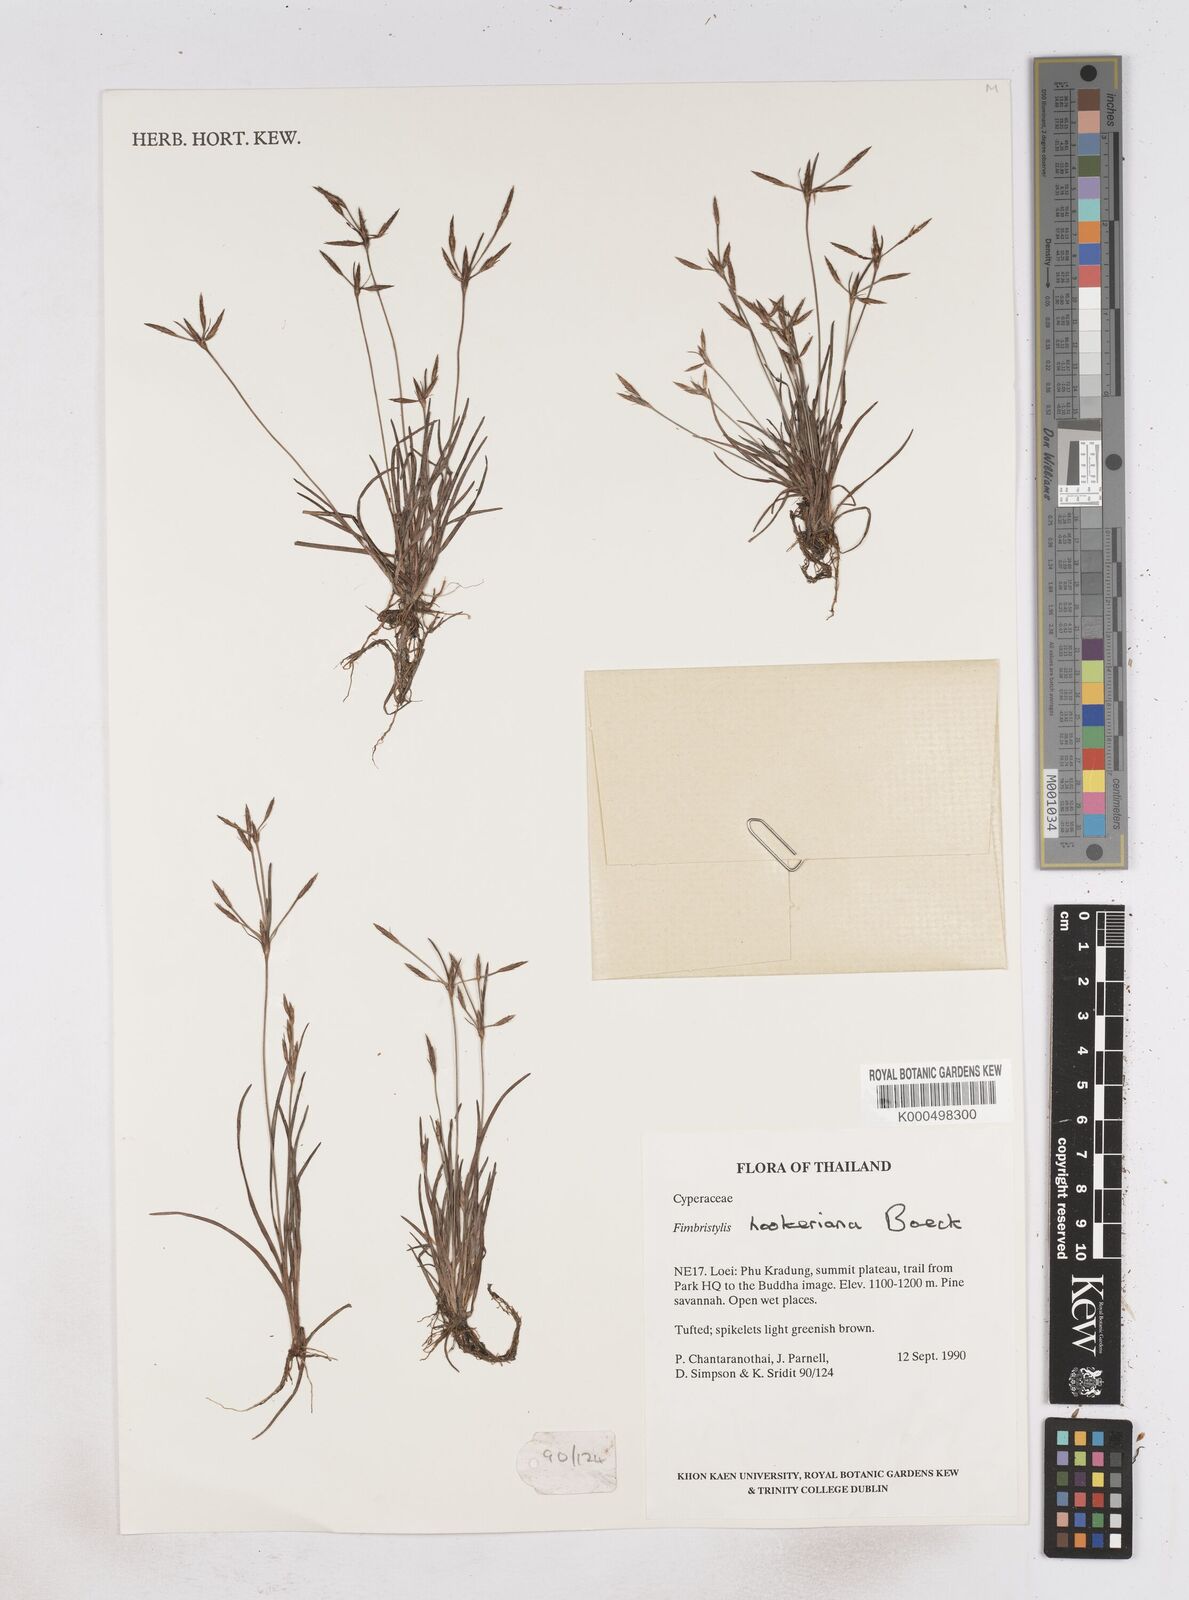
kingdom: Plantae
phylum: Tracheophyta
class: Liliopsida
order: Poales
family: Cyperaceae
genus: Fimbristylis
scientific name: Fimbristylis hookeriana
